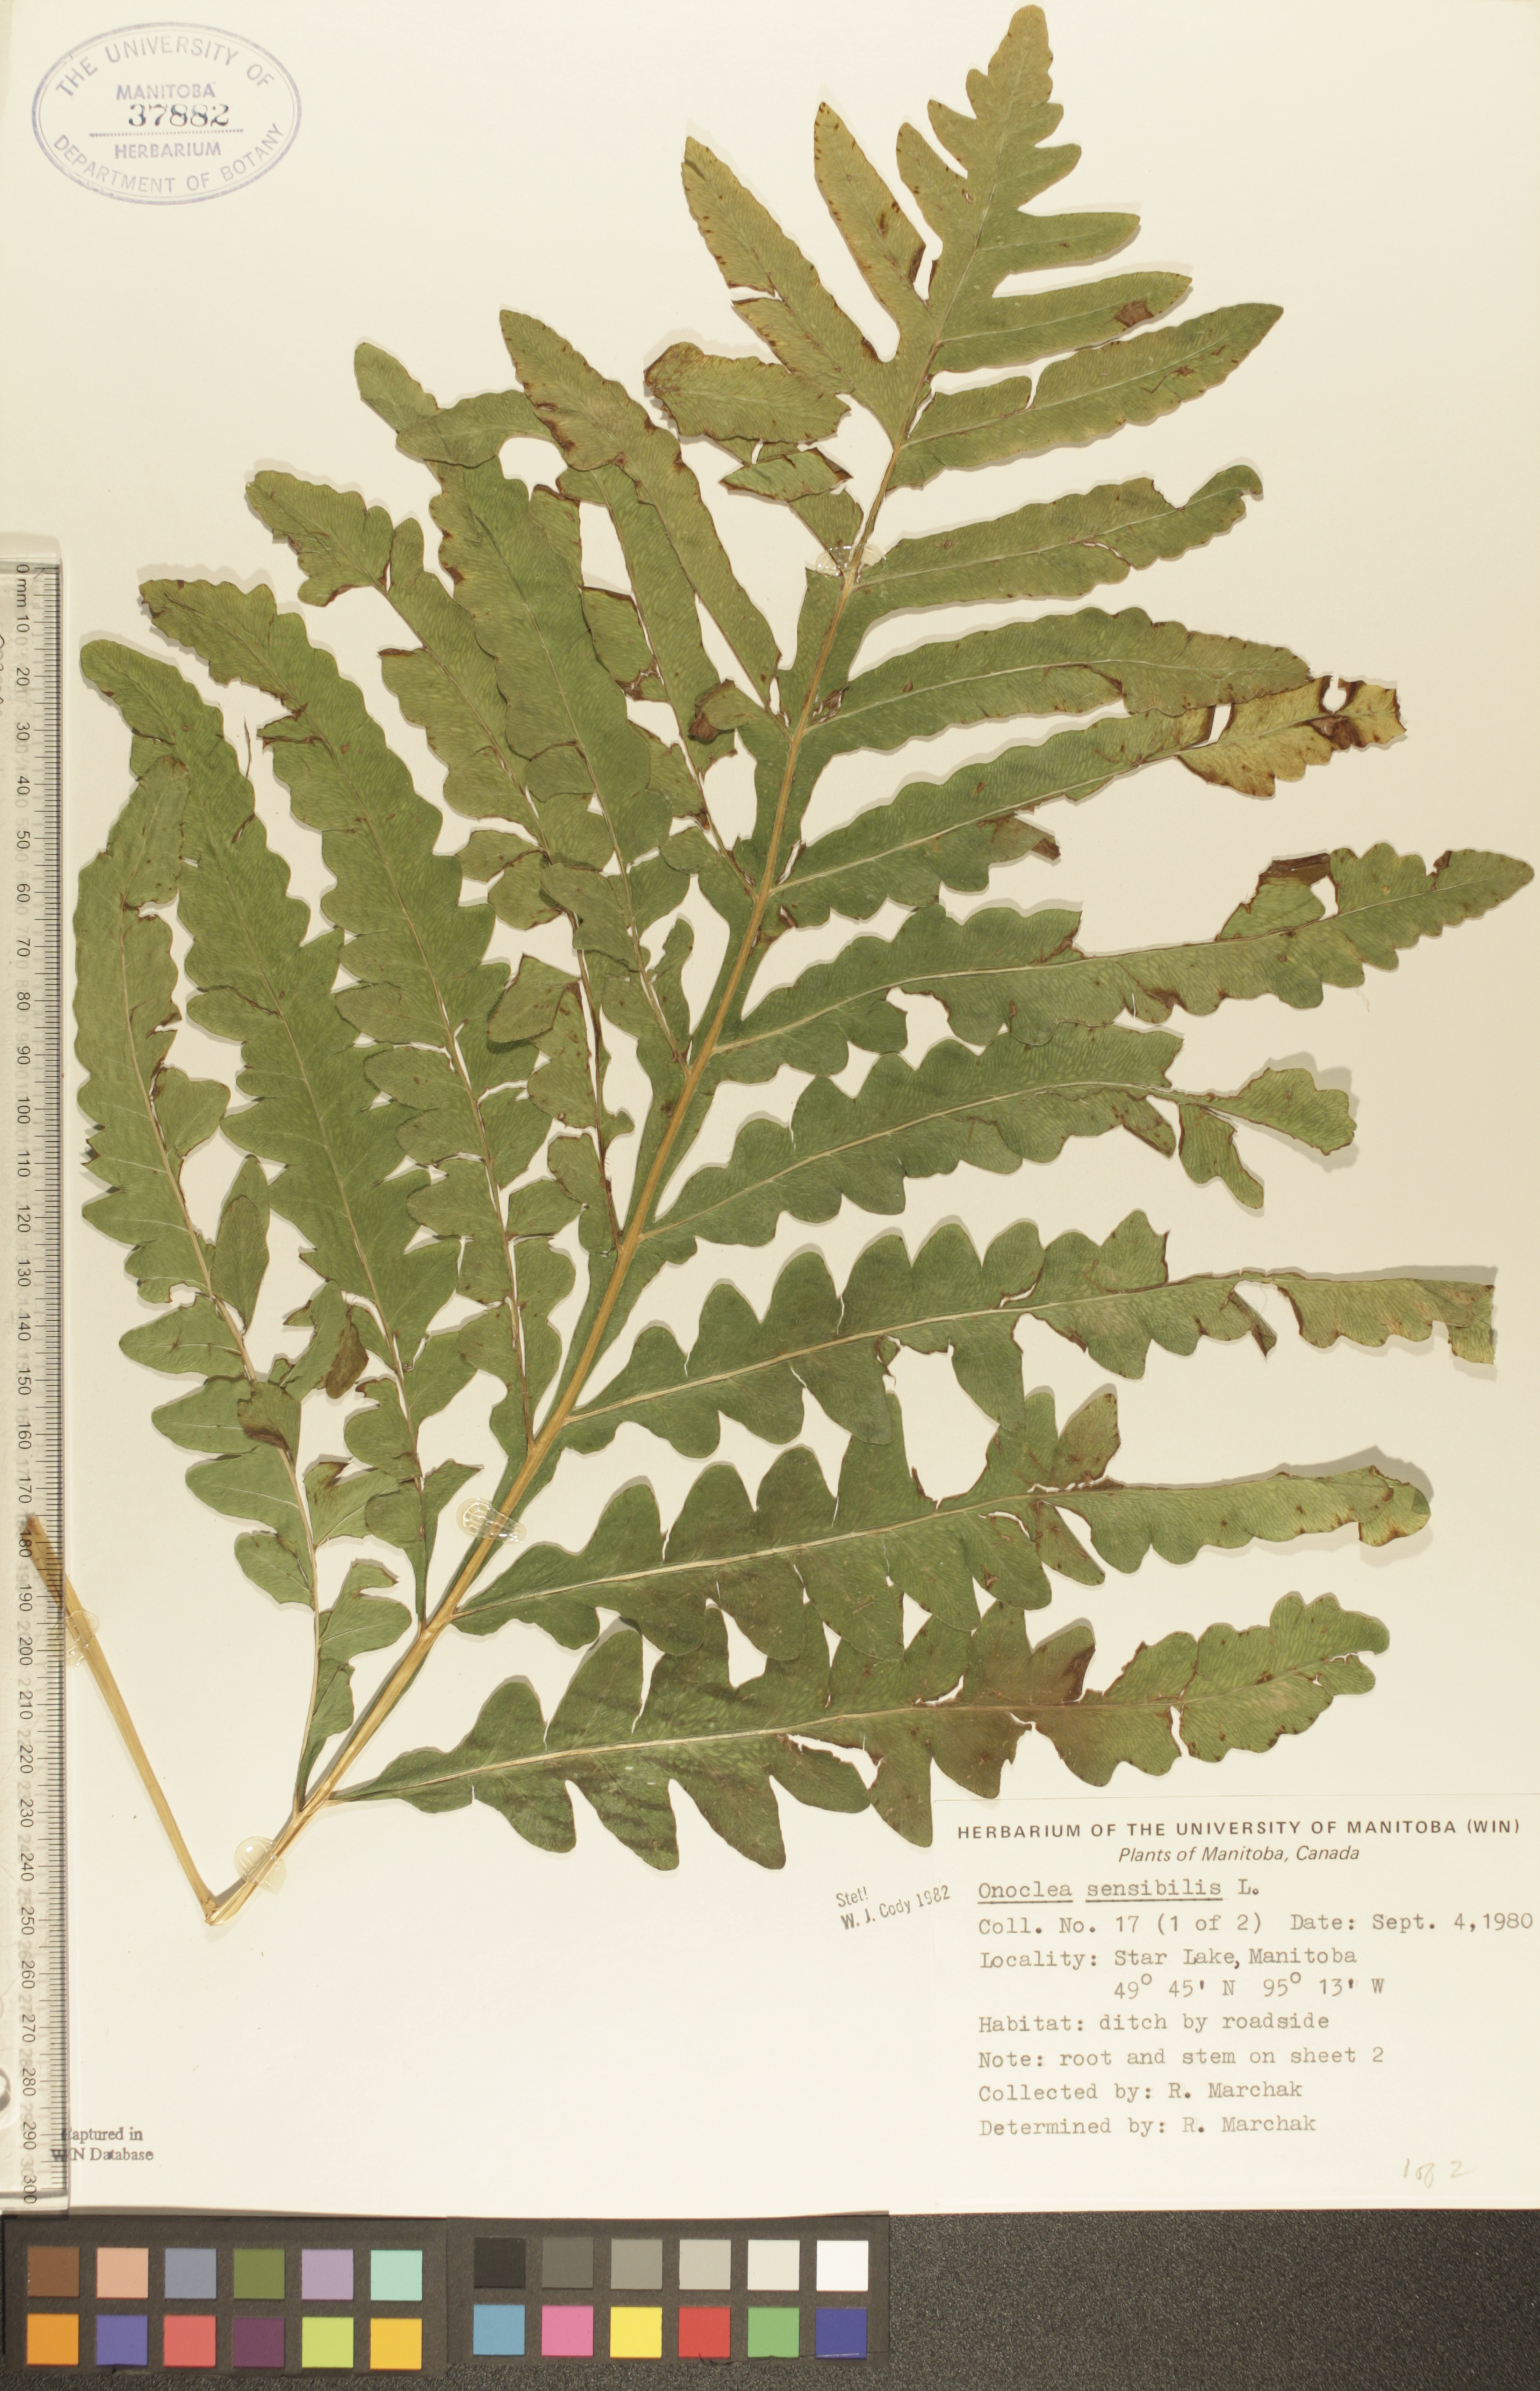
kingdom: Plantae
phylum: Tracheophyta
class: Polypodiopsida
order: Polypodiales
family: Onocleaceae
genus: Onoclea
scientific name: Onoclea sensibilis
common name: Sensitive fern
